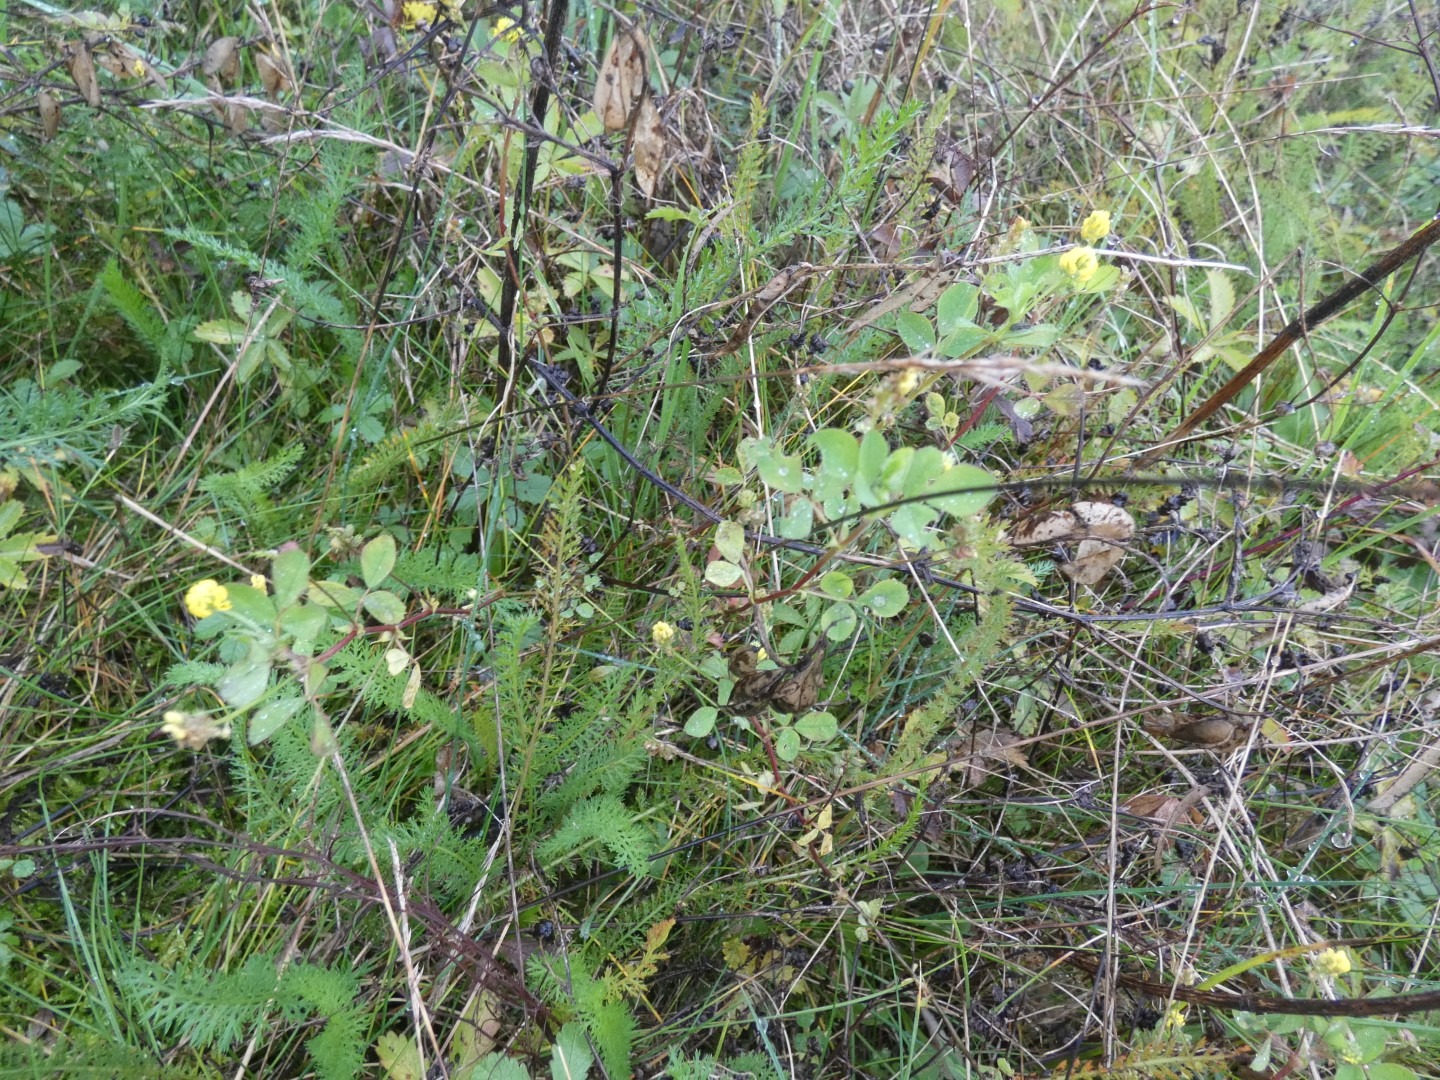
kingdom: Plantae
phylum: Tracheophyta
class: Magnoliopsida
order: Fabales
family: Fabaceae
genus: Medicago
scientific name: Medicago lupulina
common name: Humle-sneglebælg
